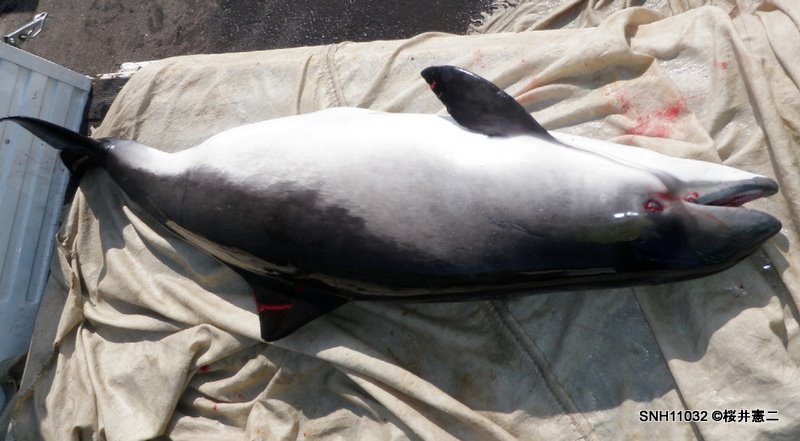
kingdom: Animalia
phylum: Chordata
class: Mammalia
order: Cetacea
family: Phocoenidae
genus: Phocoena
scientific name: Phocoena phocoena
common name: Harbour porpoise
